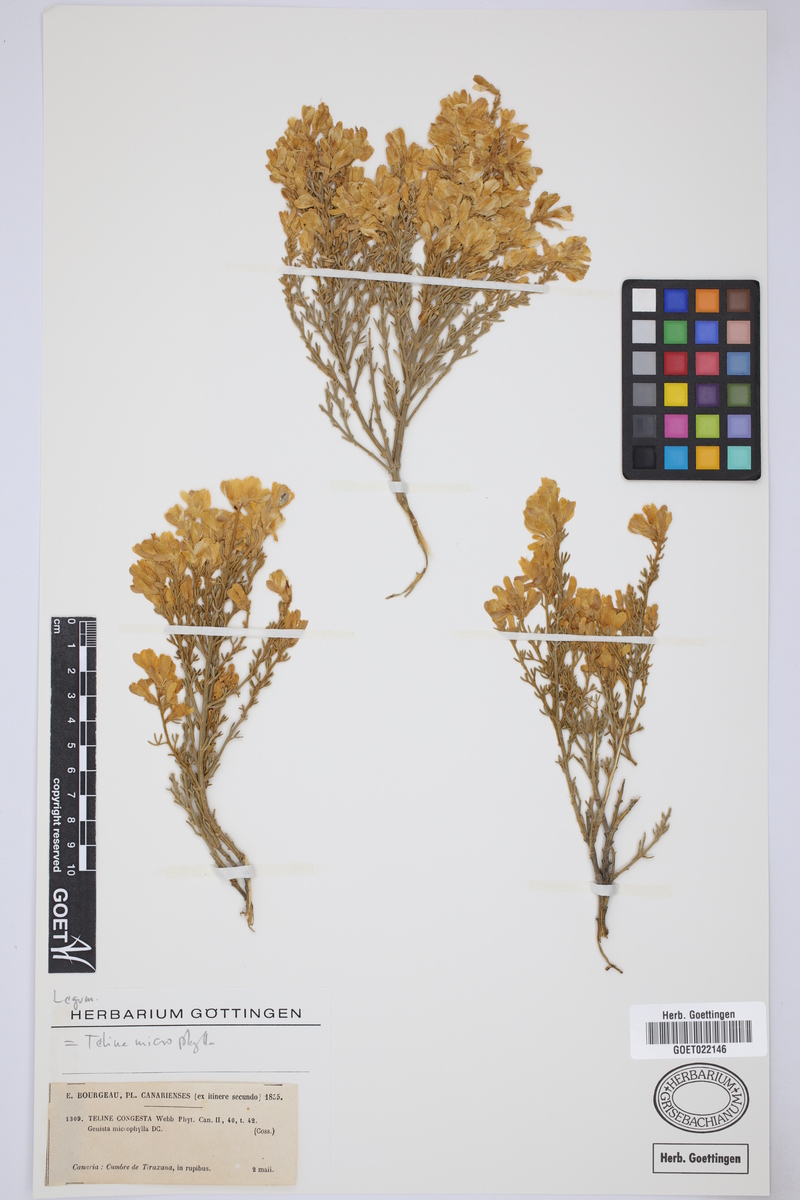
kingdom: Plantae
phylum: Tracheophyta
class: Magnoliopsida
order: Fabales
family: Fabaceae
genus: Genista
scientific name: Genista microphylla
